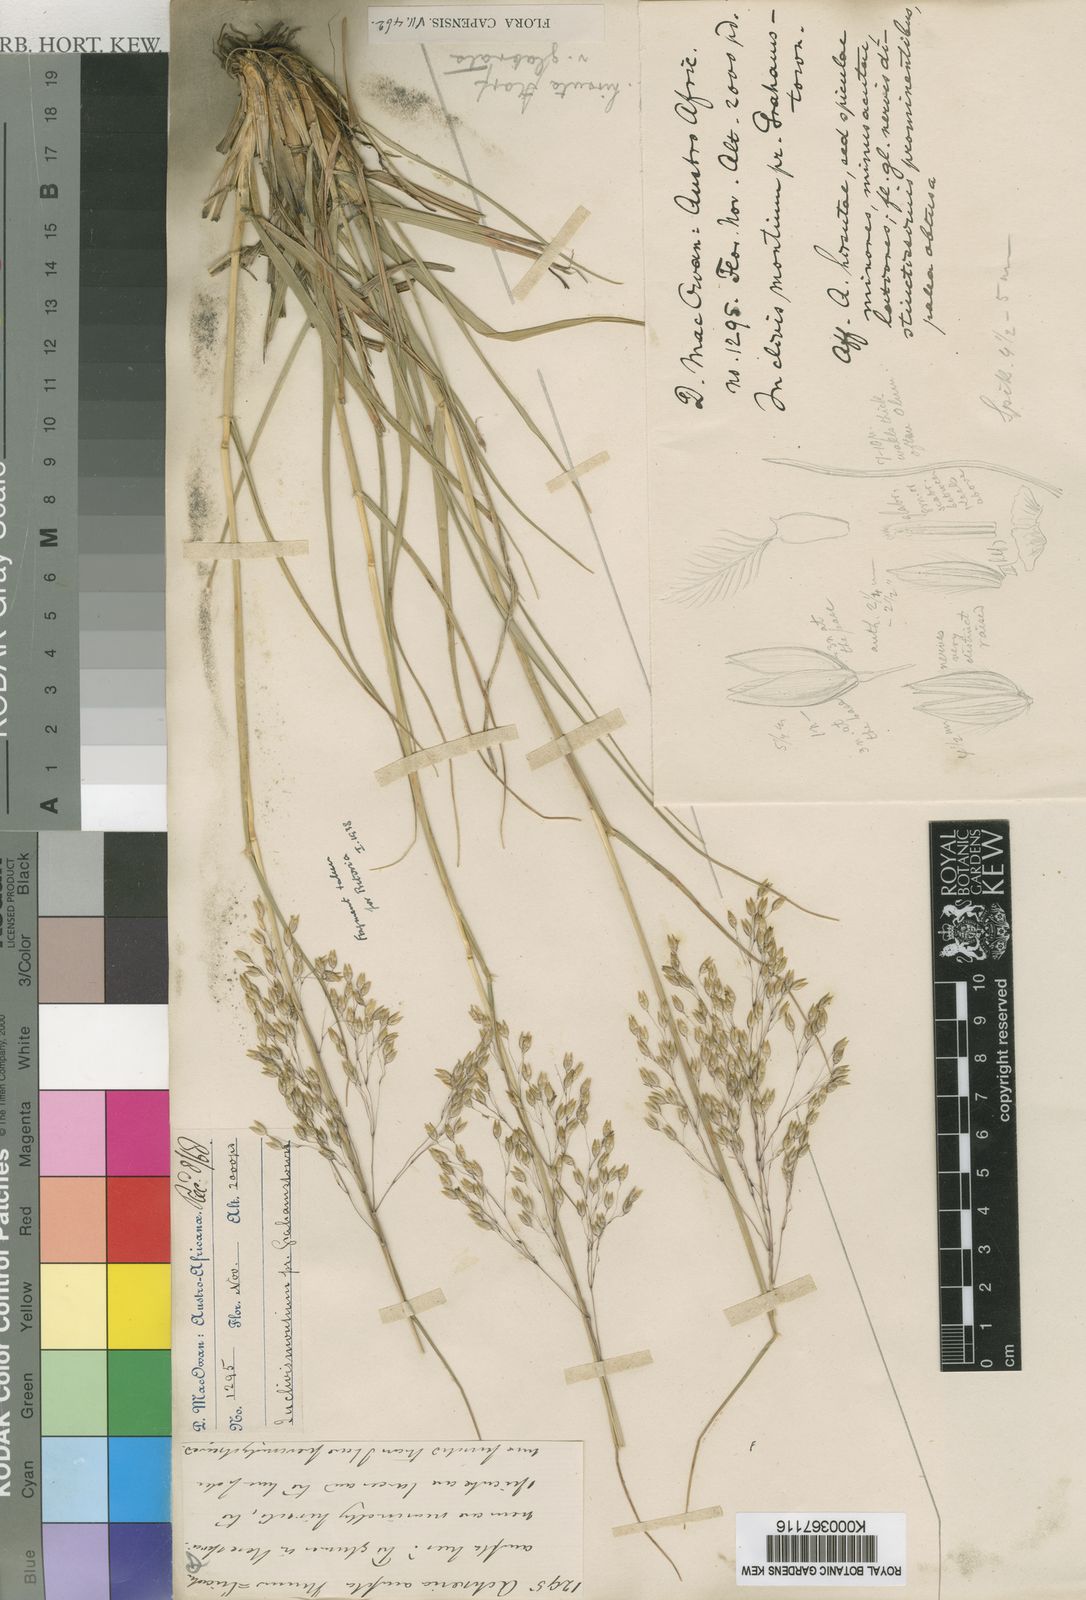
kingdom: Plantae
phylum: Tracheophyta
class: Liliopsida
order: Poales
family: Poaceae
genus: Pentameris
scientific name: Pentameris aurea
